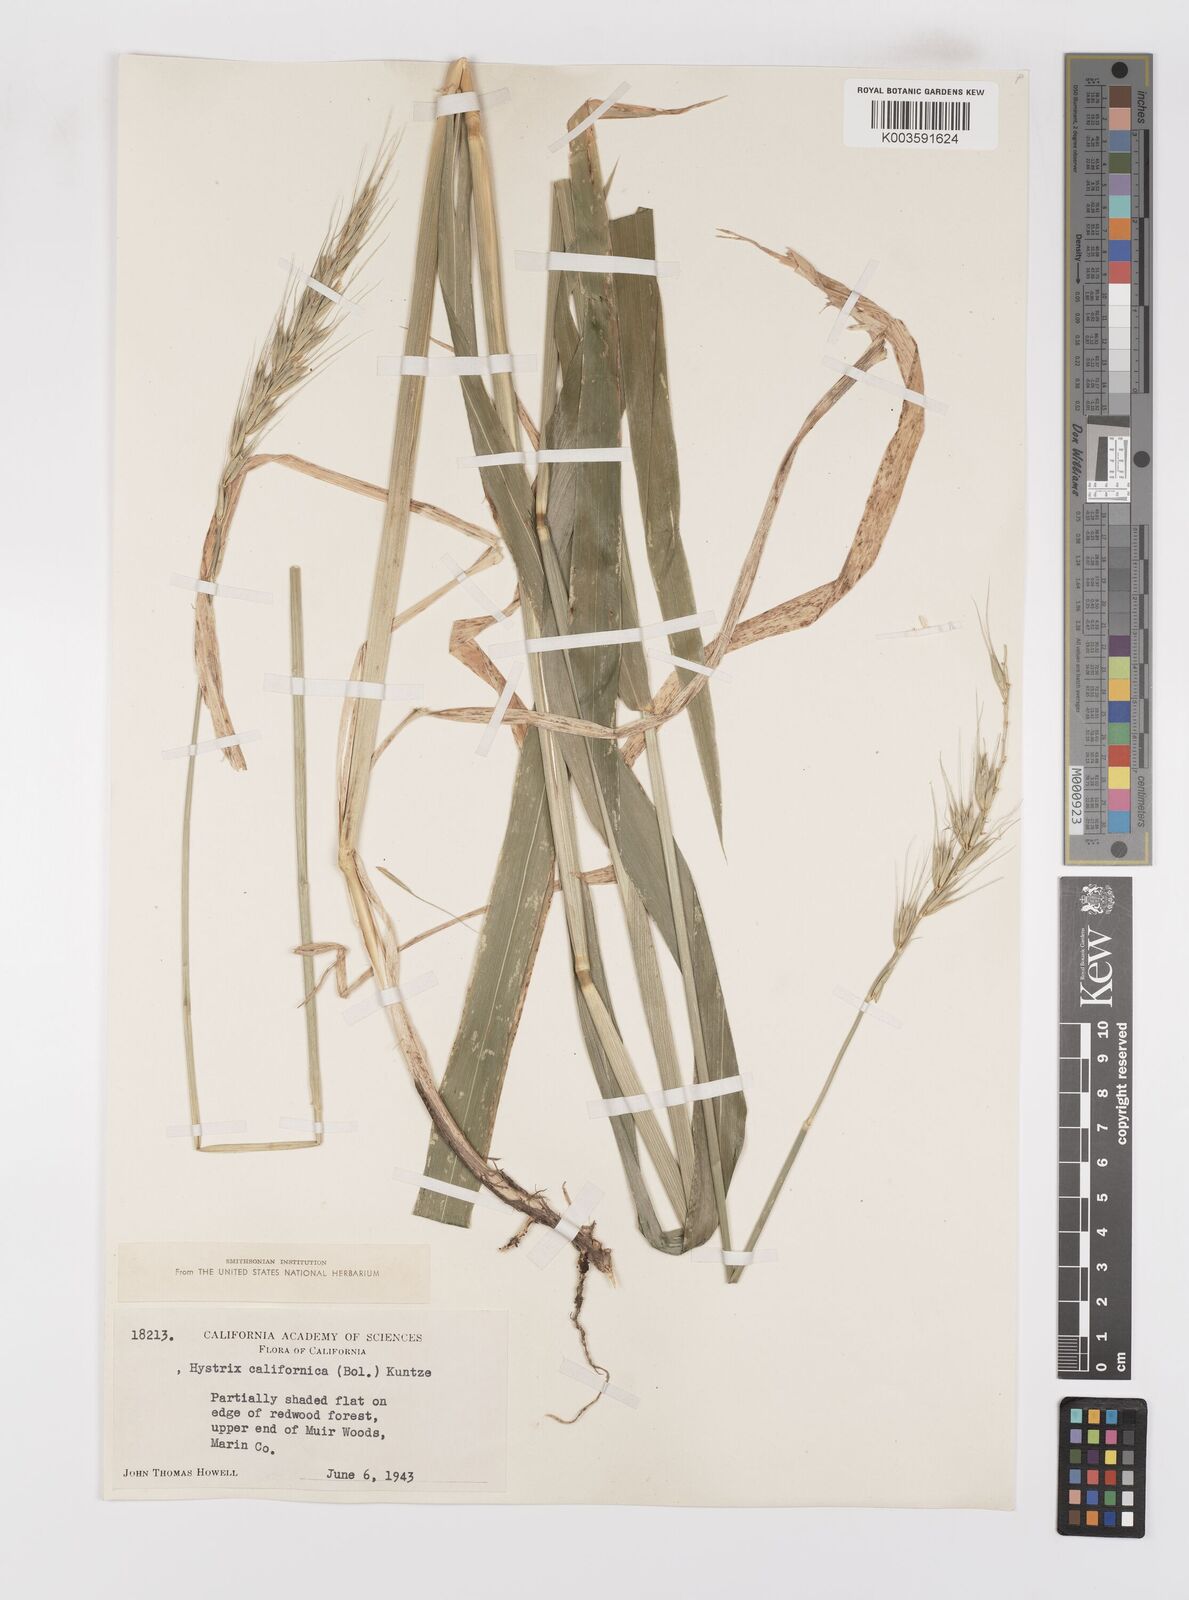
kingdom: Plantae
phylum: Tracheophyta
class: Liliopsida
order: Poales
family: Poaceae
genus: Leymus
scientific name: Leymus
